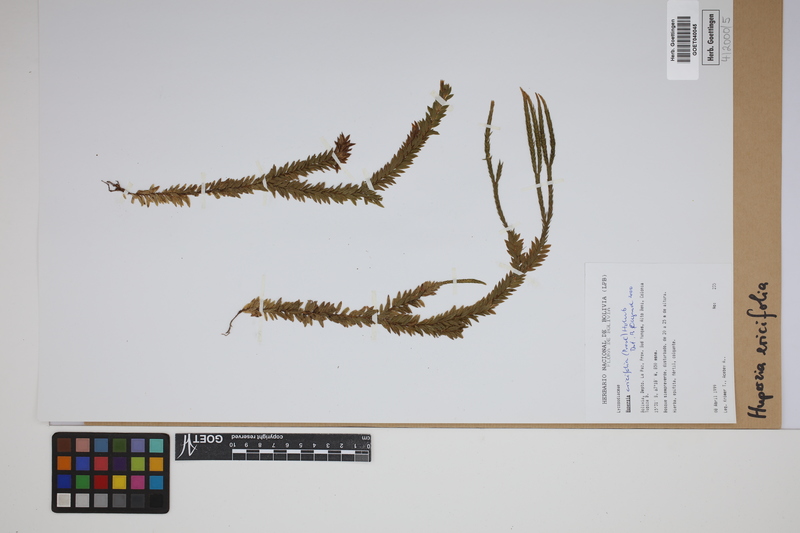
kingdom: Plantae
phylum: Tracheophyta
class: Lycopodiopsida
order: Lycopodiales
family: Lycopodiaceae
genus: Phlegmariurus
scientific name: Phlegmariurus ericifolius
